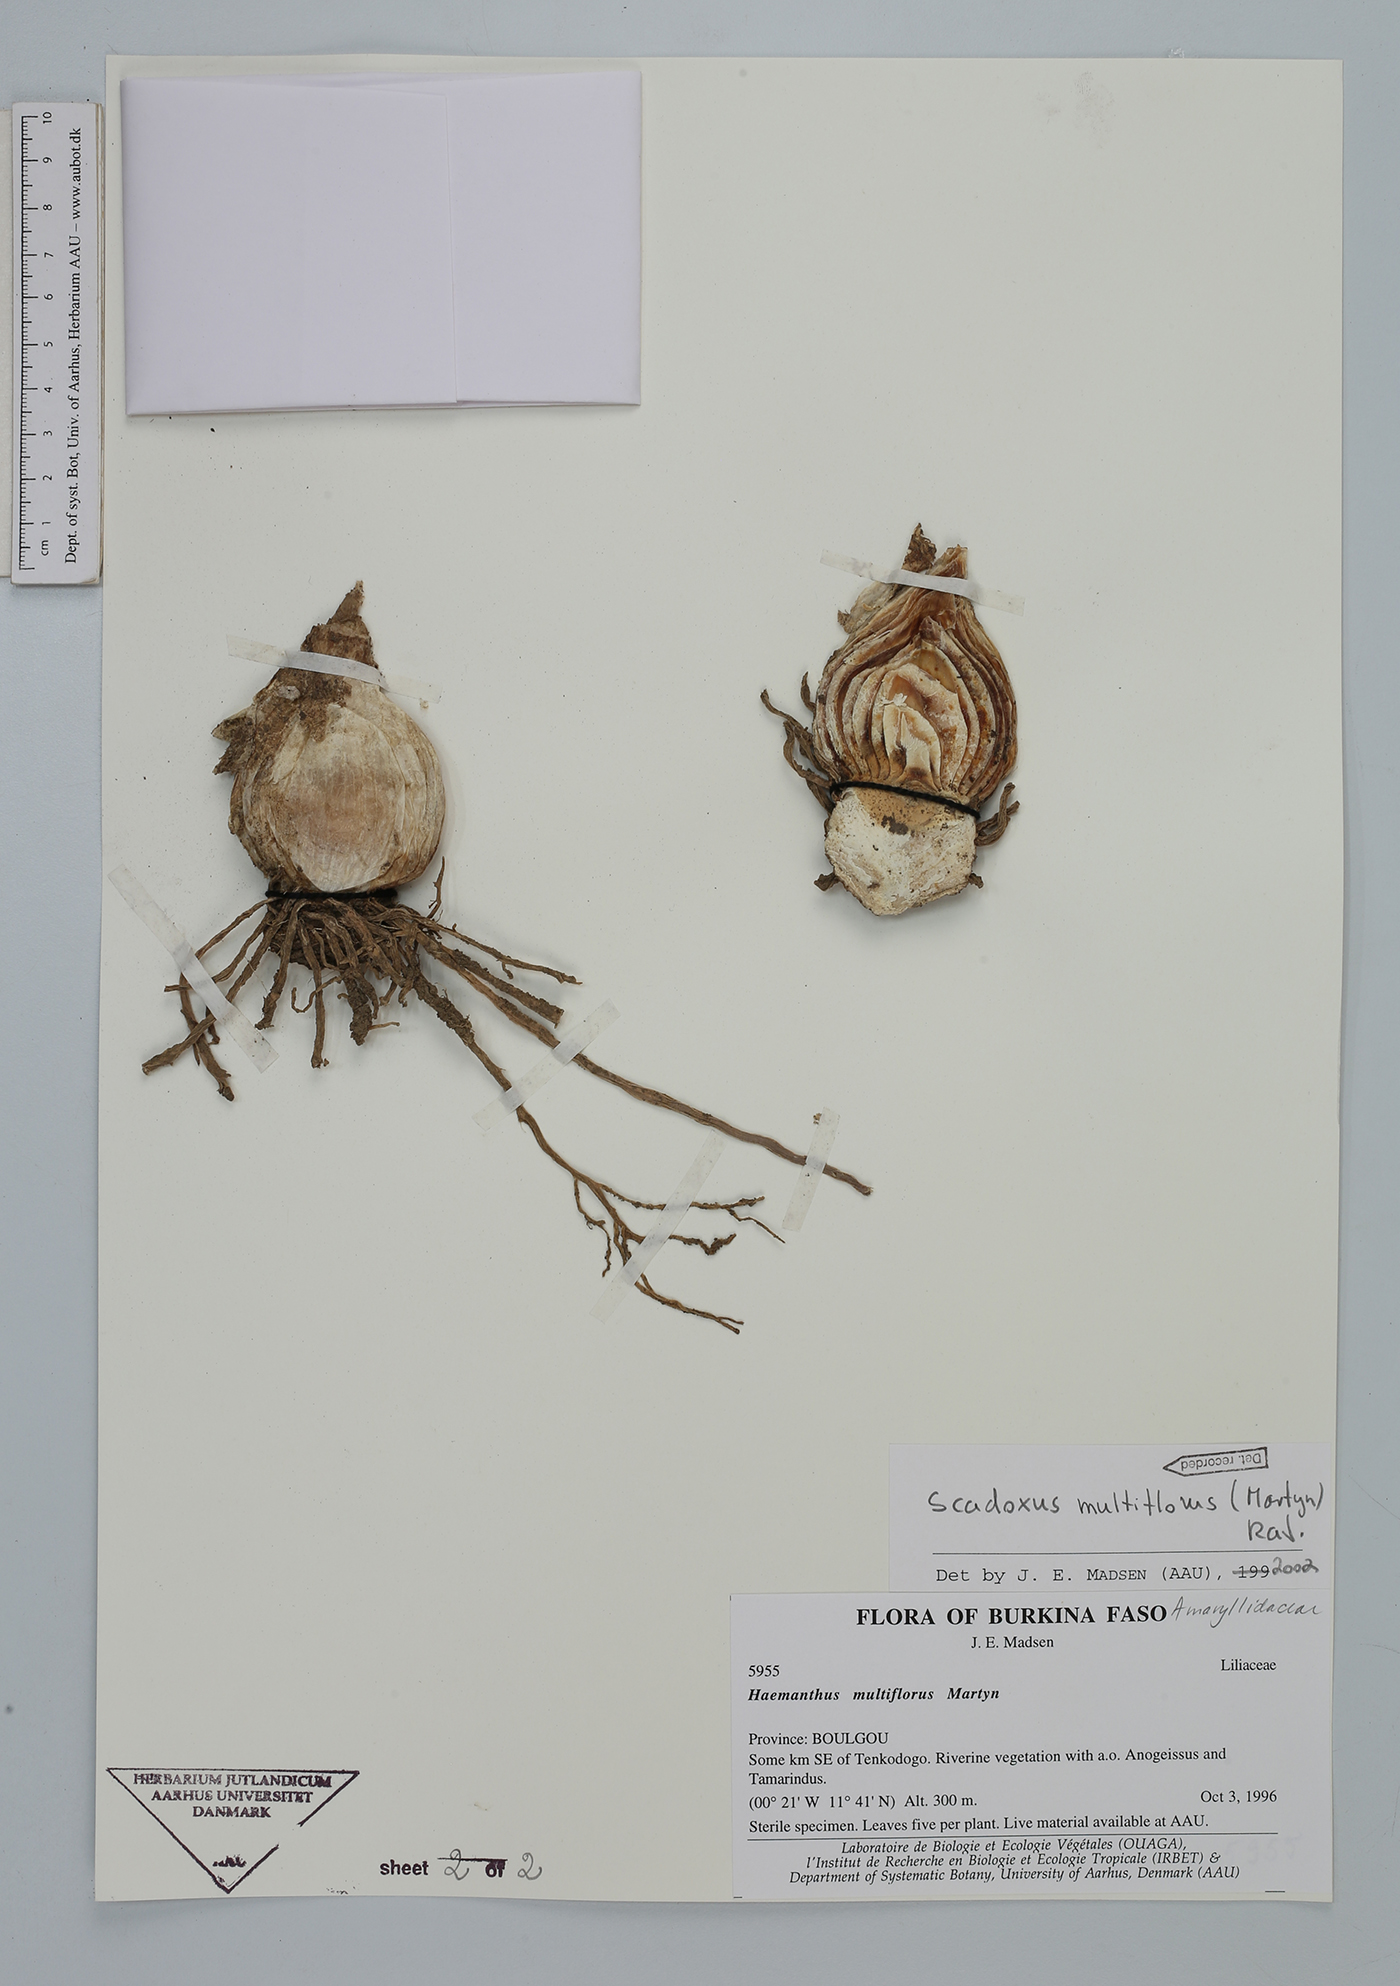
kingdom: Plantae
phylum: Tracheophyta
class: Liliopsida
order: Asparagales
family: Amaryllidaceae
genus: Scadoxus
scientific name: Scadoxus multiflorus
